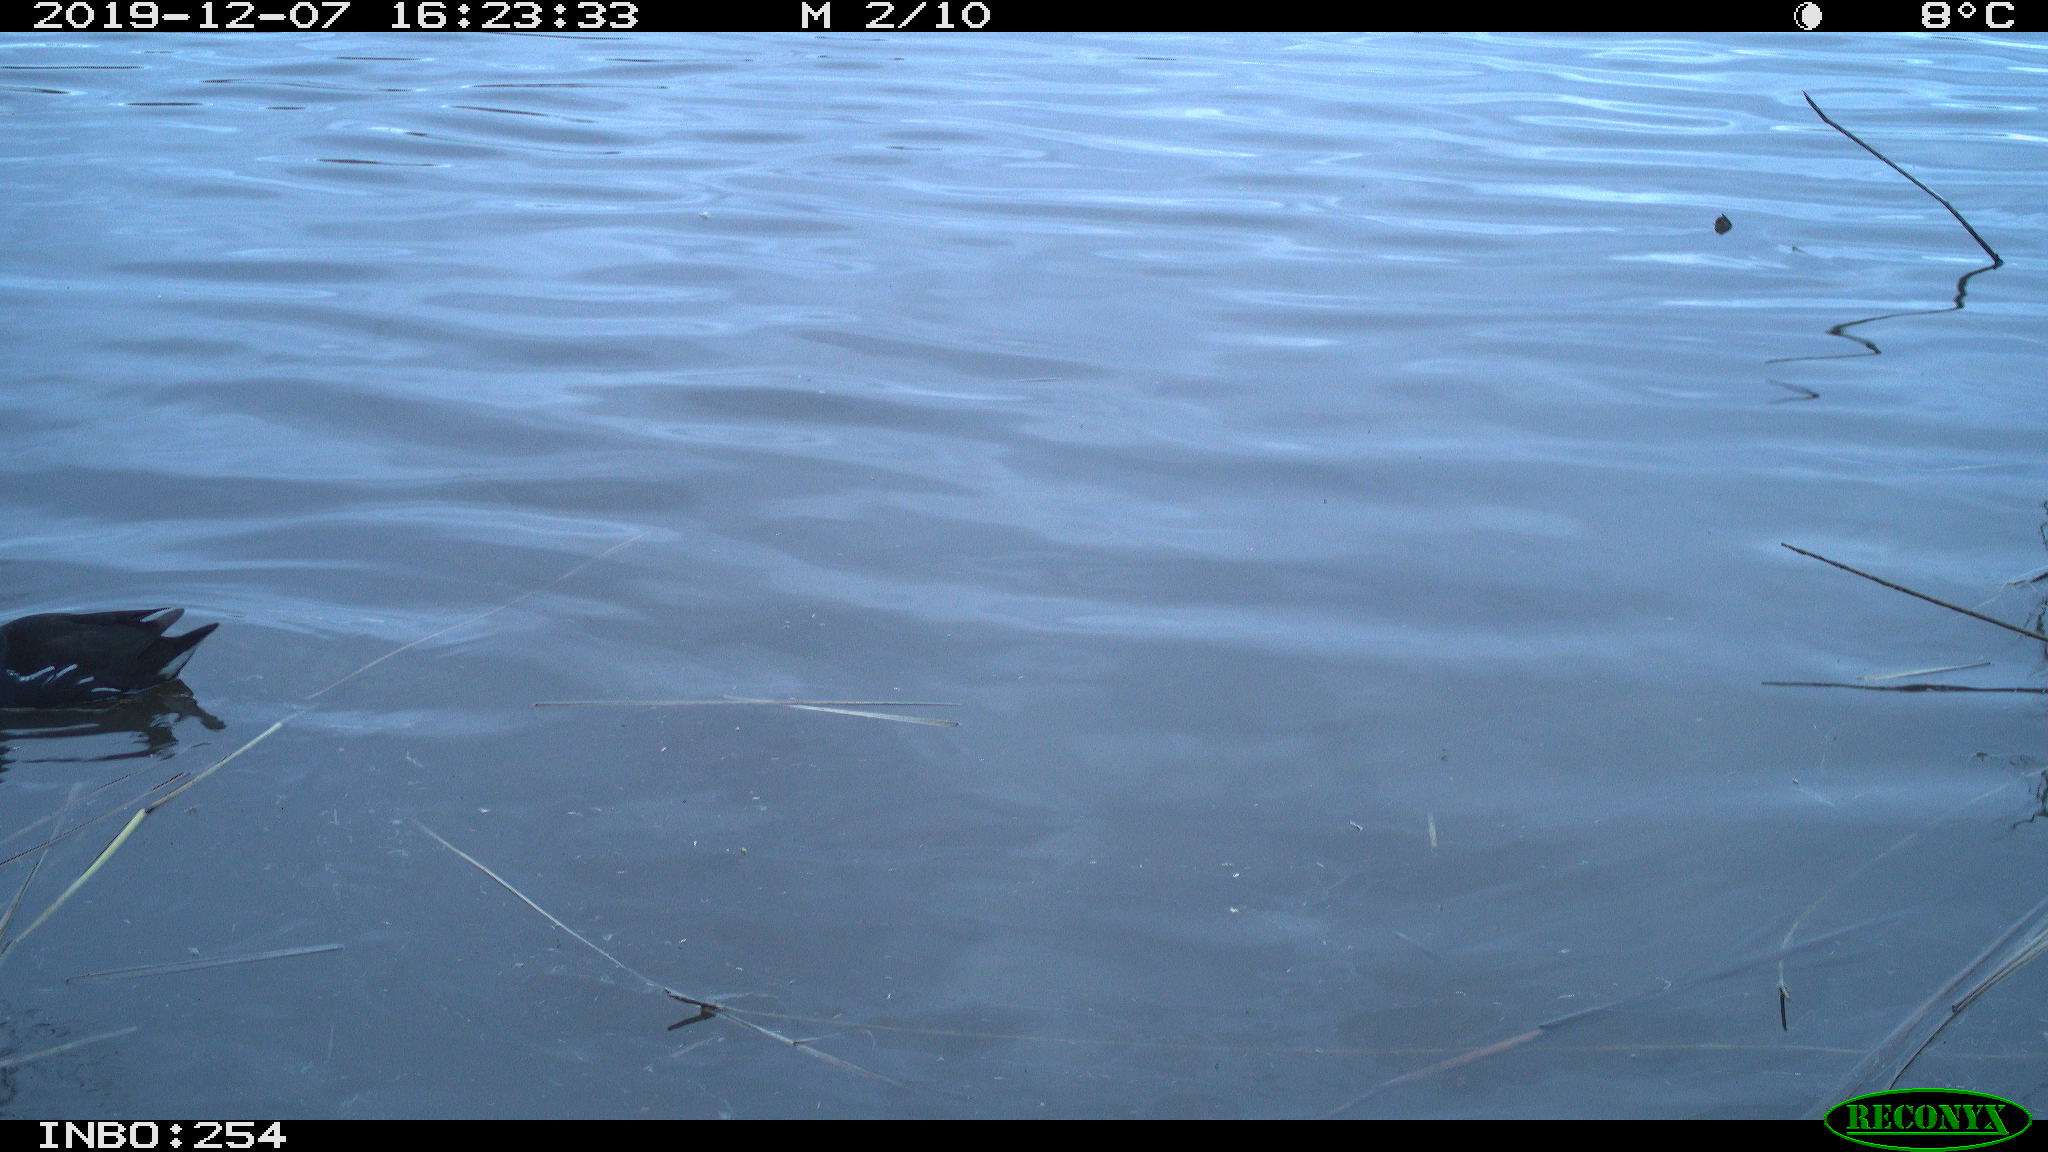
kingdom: Animalia
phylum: Chordata
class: Aves
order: Gruiformes
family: Rallidae
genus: Gallinula
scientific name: Gallinula chloropus
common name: Common moorhen
